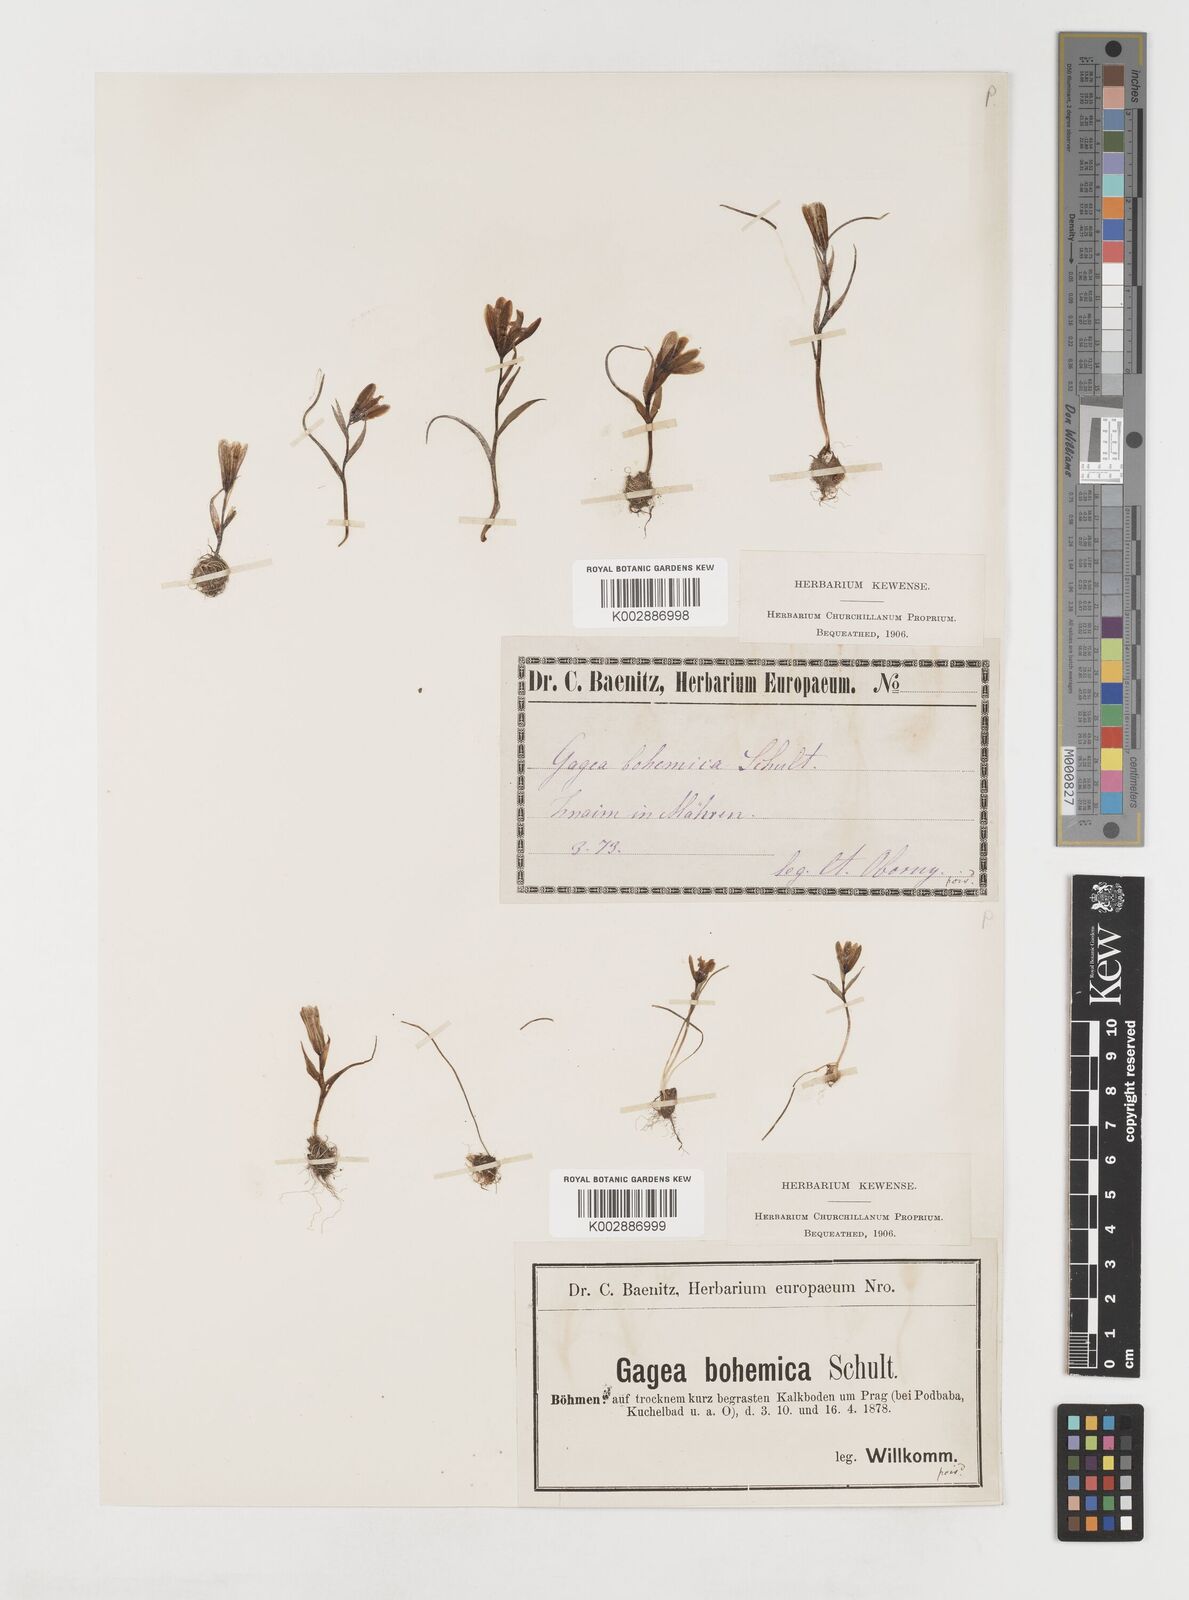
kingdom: Plantae
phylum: Tracheophyta
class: Liliopsida
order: Liliales
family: Liliaceae
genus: Gagea
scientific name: Gagea bohemica
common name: Early star-of-bethlehem
